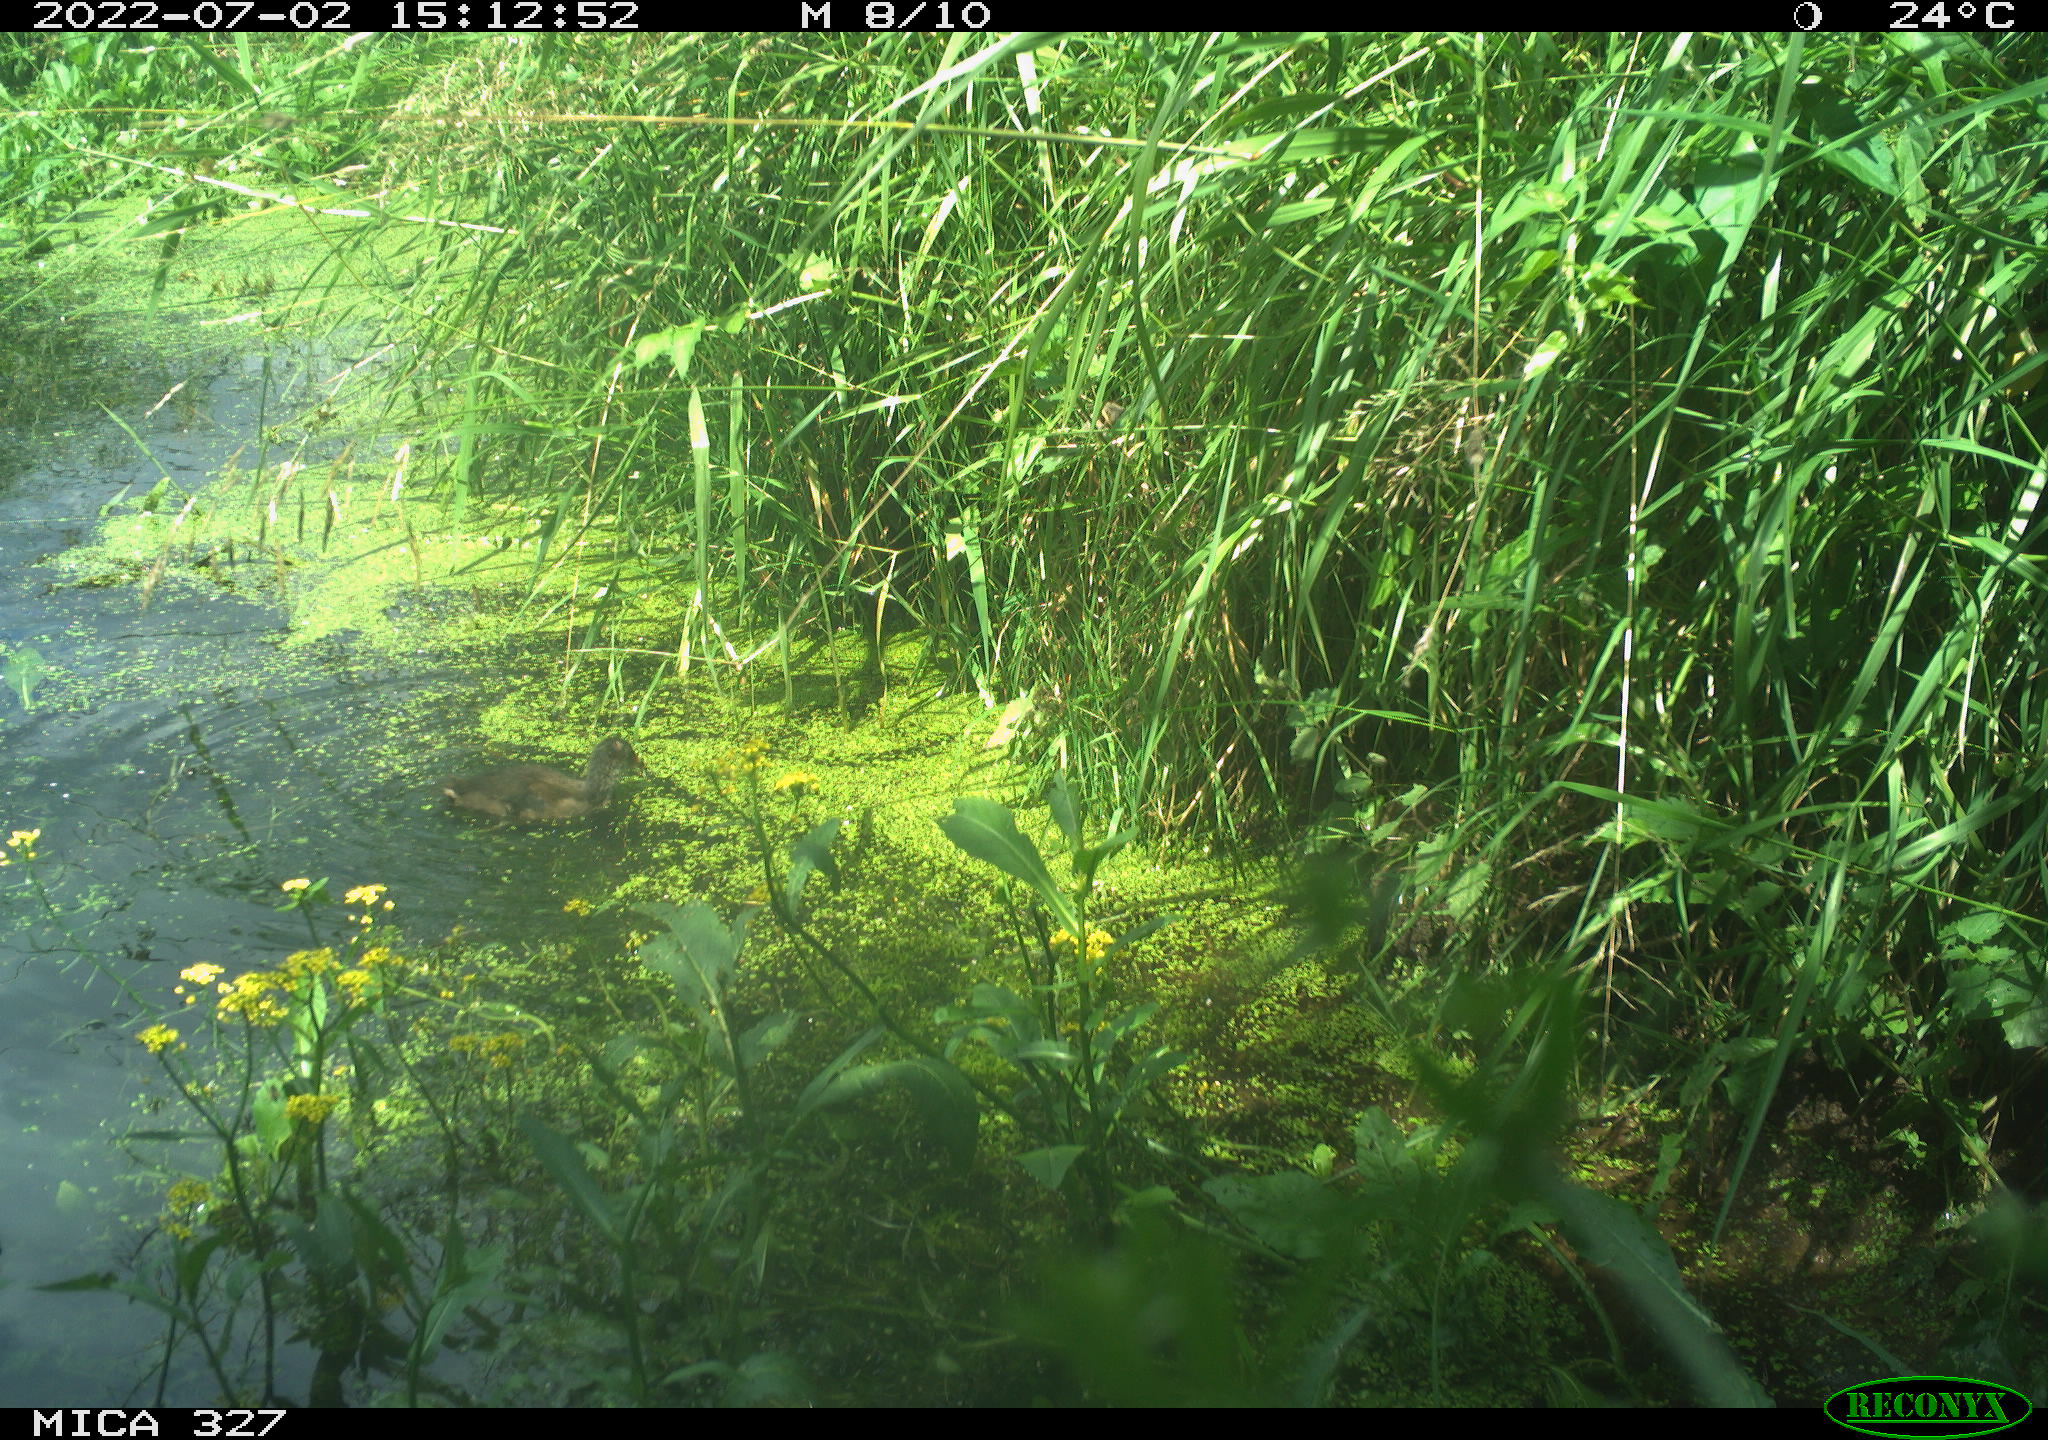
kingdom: Animalia
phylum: Chordata
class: Aves
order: Gruiformes
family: Rallidae
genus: Gallinula
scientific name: Gallinula chloropus
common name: Common moorhen
